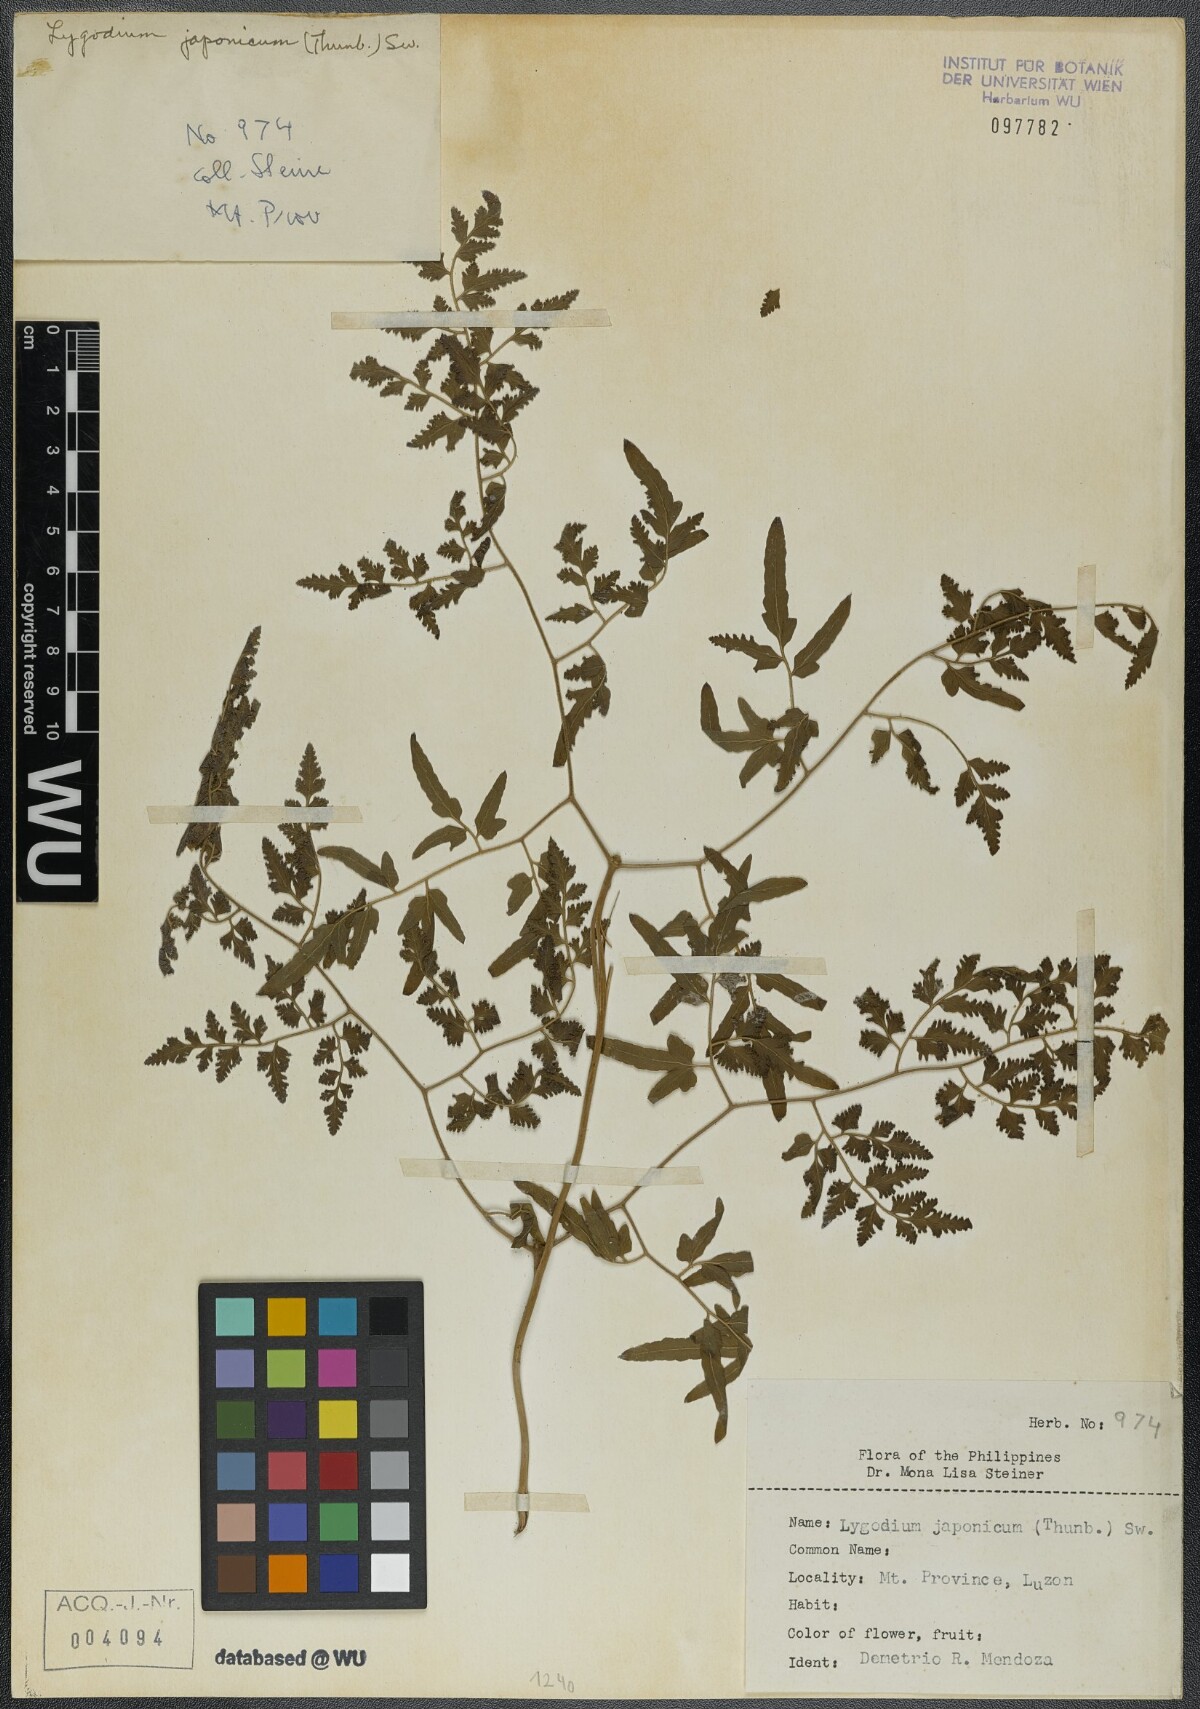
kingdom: Plantae
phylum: Tracheophyta
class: Polypodiopsida
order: Schizaeales
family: Lygodiaceae
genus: Lygodium
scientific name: Lygodium japonicum
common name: Japanese climbing fern
